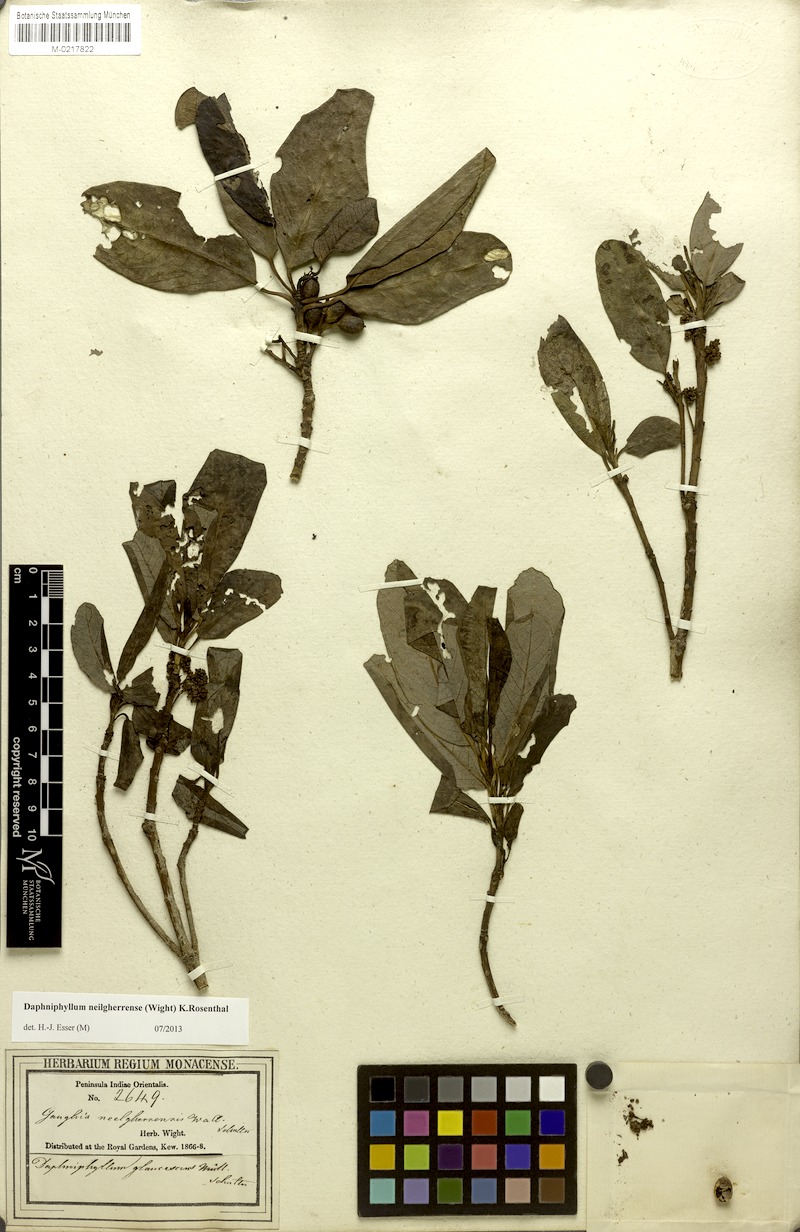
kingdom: Plantae
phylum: Tracheophyta
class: Magnoliopsida
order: Saxifragales
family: Daphniphyllaceae
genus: Daphniphyllum
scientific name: Daphniphyllum neilgherrense
